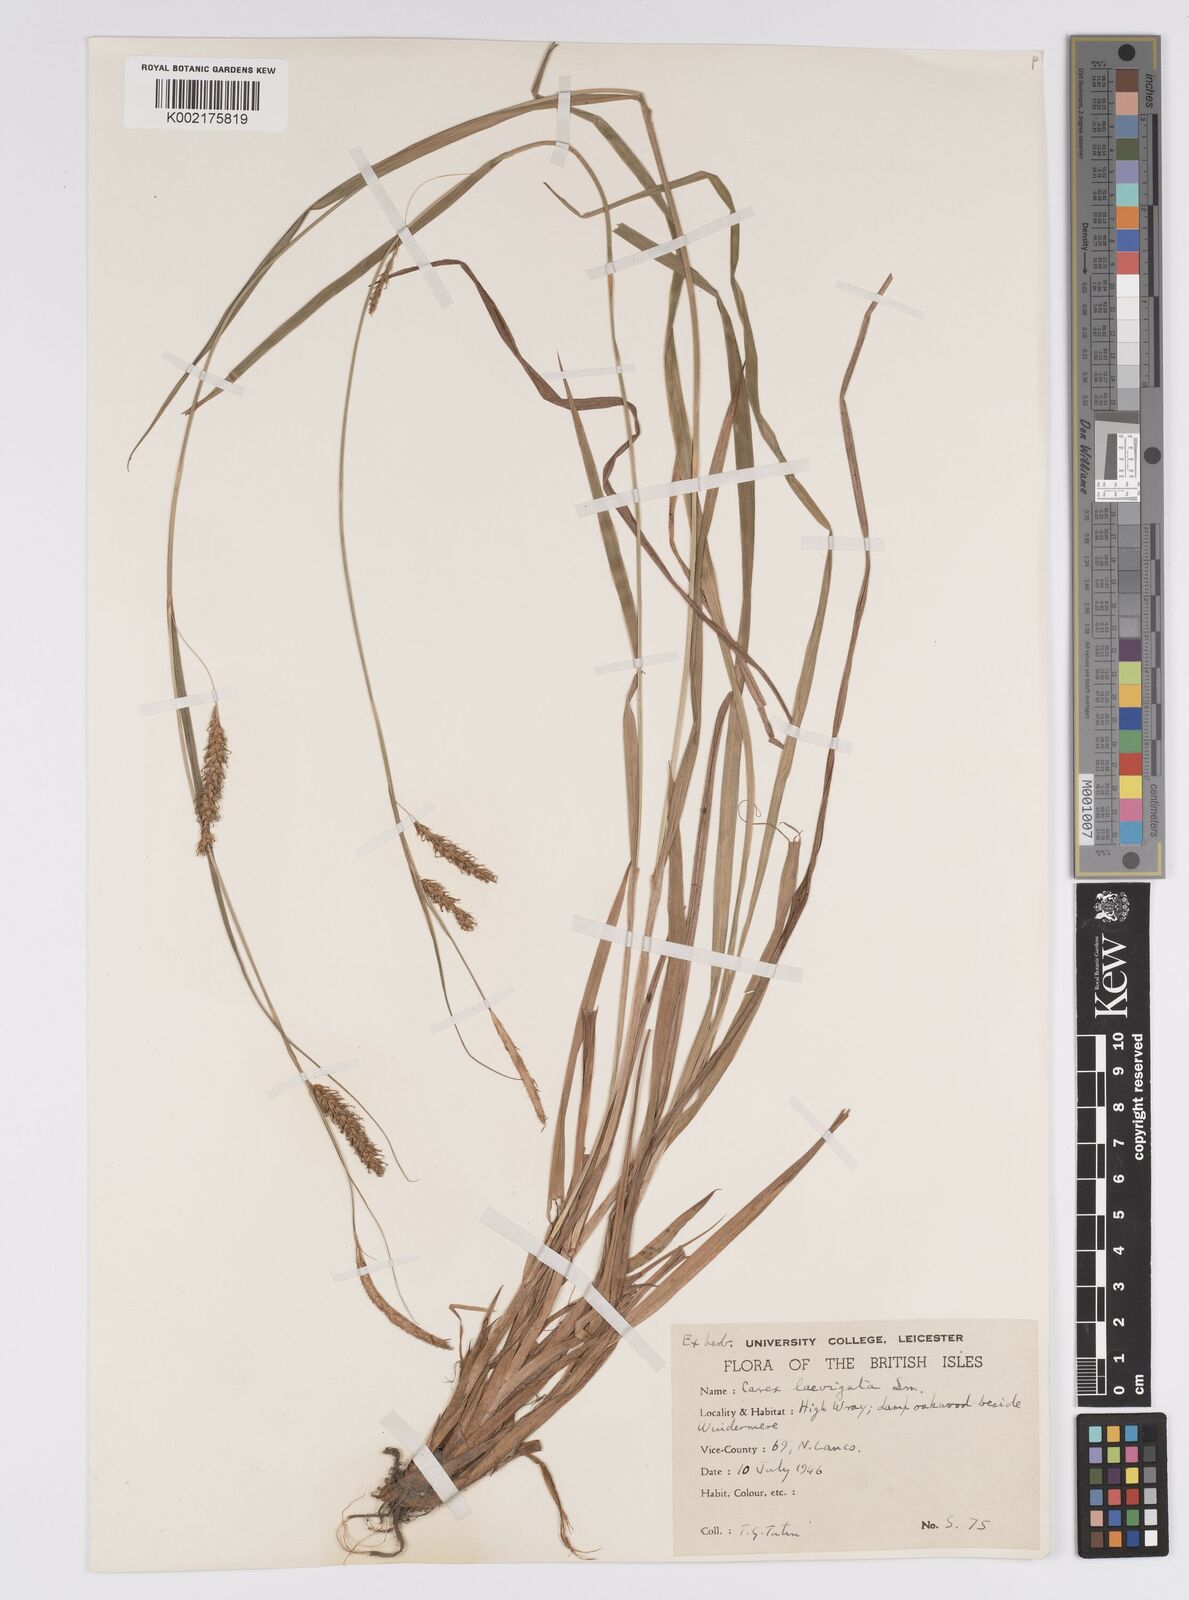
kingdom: Plantae
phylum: Tracheophyta
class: Liliopsida
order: Poales
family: Cyperaceae
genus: Carex
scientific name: Carex laevigata
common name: Smooth-stalked sedge
